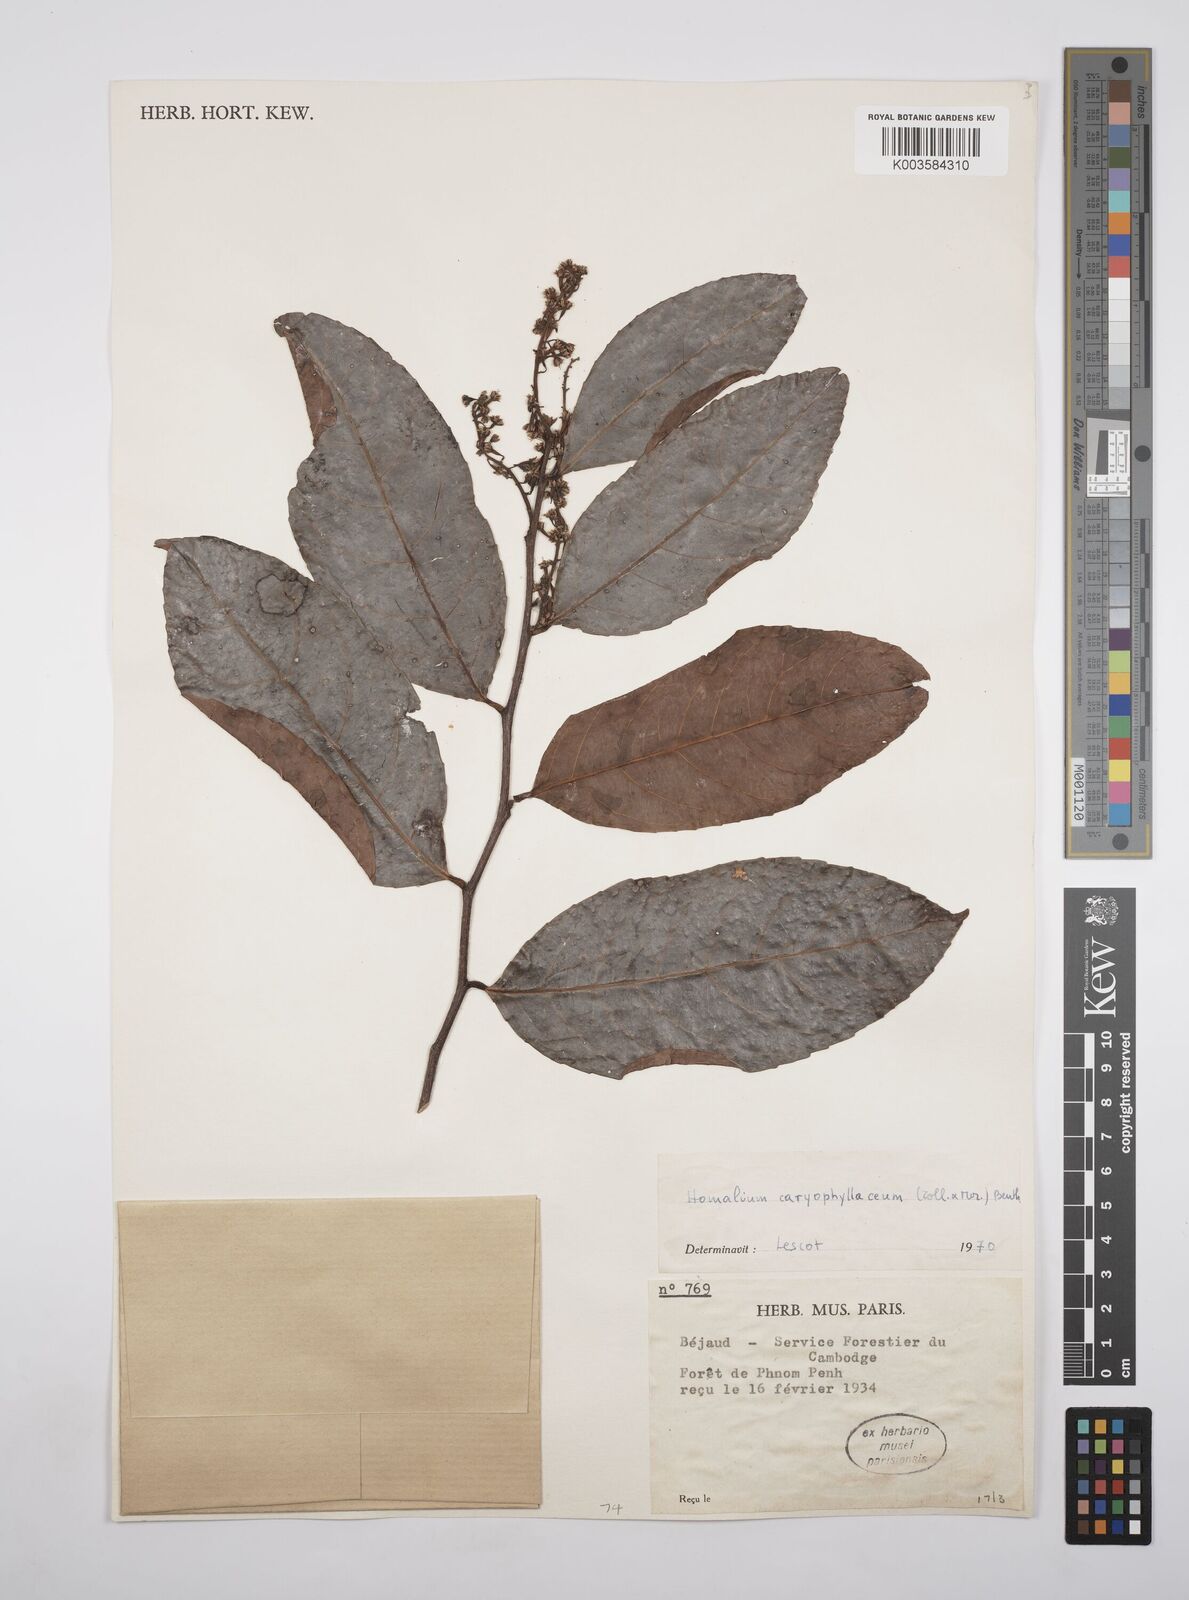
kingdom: Plantae
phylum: Tracheophyta
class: Magnoliopsida
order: Malpighiales
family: Salicaceae
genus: Homalium
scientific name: Homalium caryophyllaceum
